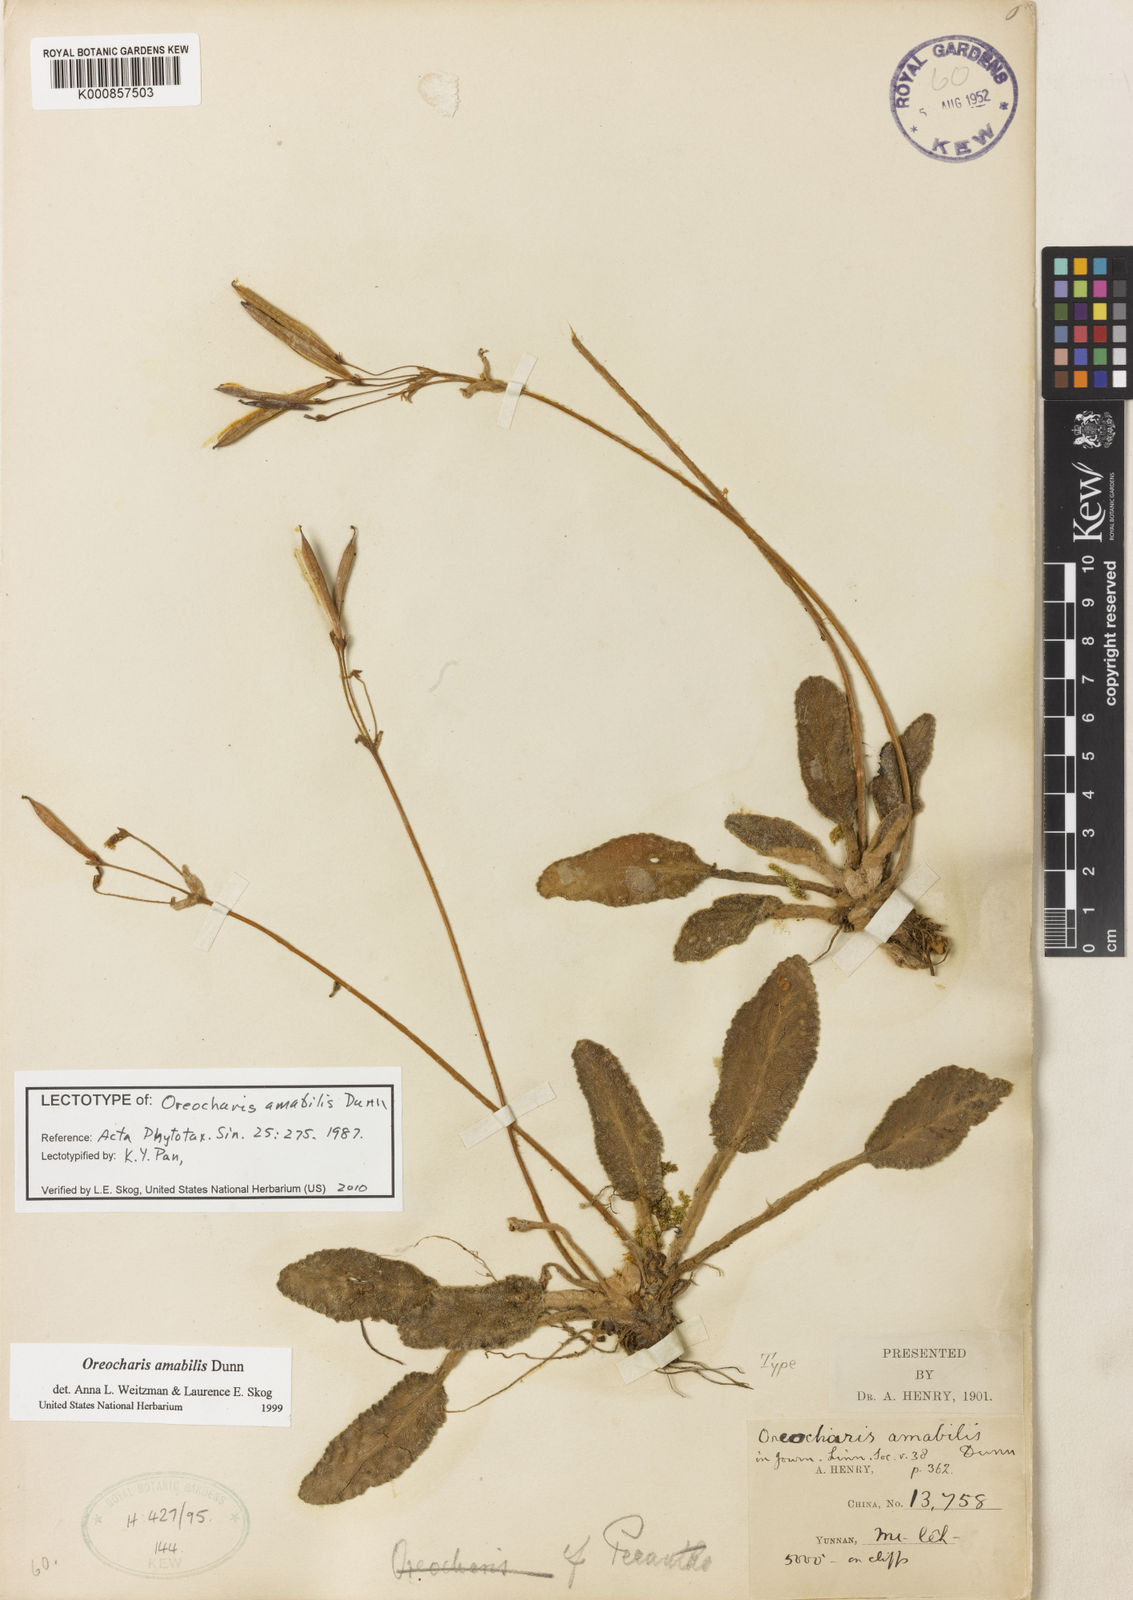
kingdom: Plantae
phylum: Tracheophyta
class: Magnoliopsida
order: Lamiales
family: Gesneriaceae
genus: Oreocharis
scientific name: Oreocharis amabilis
